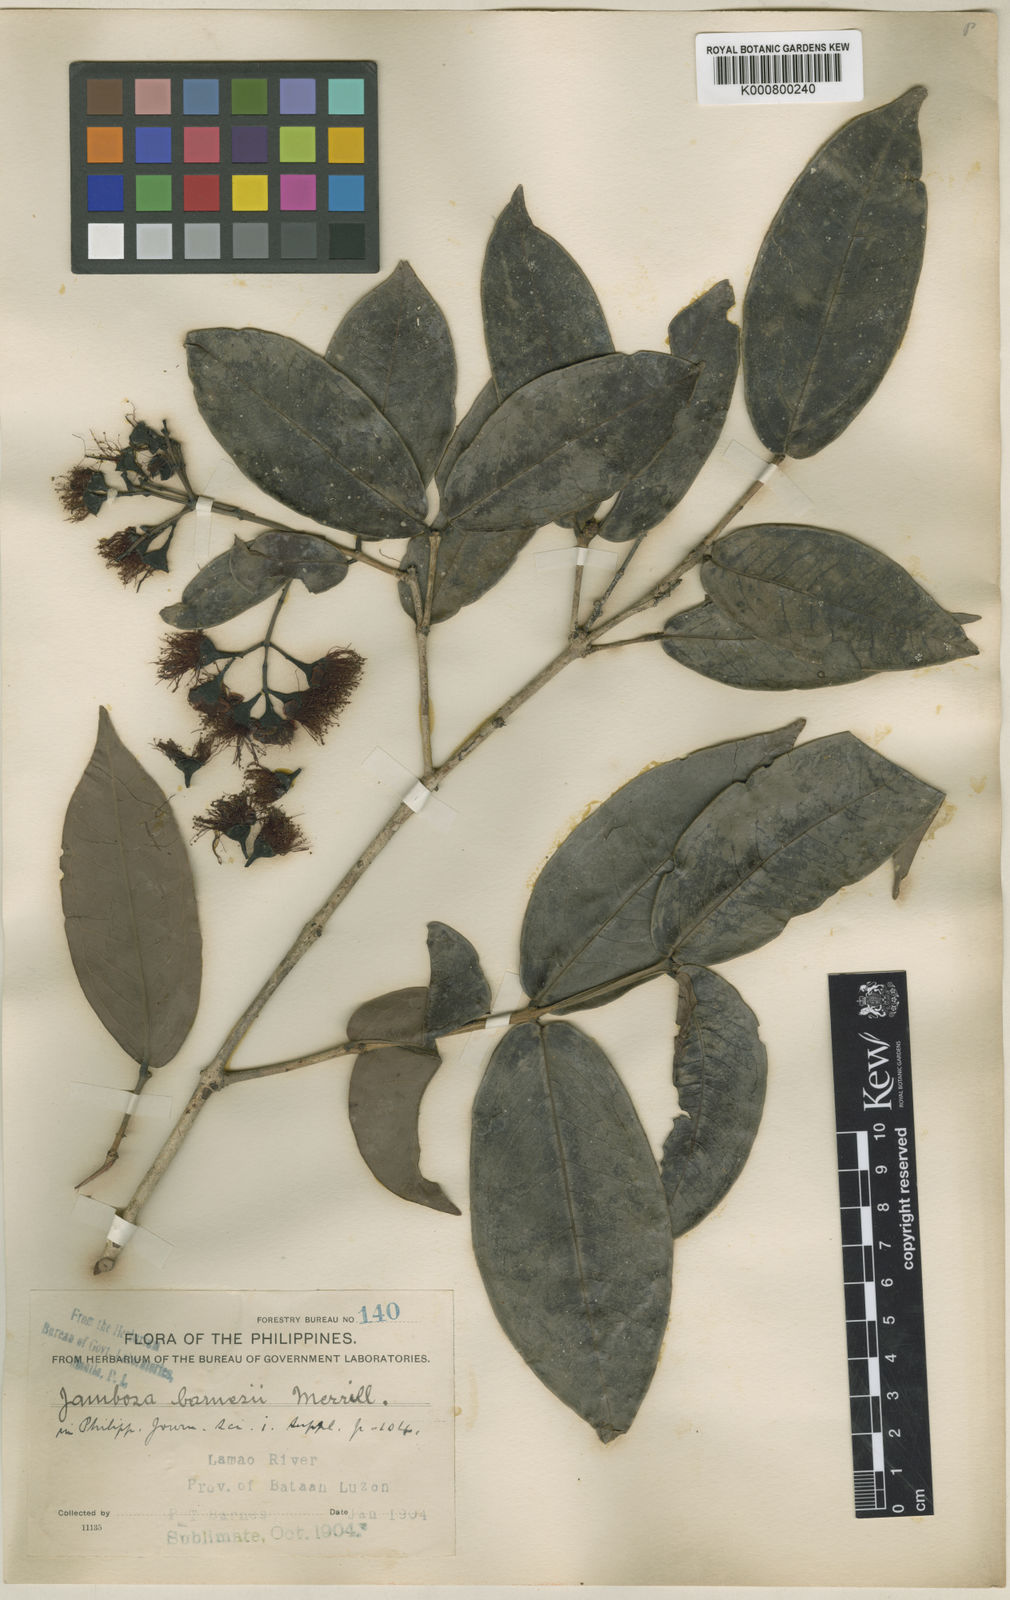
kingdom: Plantae
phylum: Tracheophyta
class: Magnoliopsida
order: Myrtales
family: Myrtaceae
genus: Syzygium
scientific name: Syzygium barnesii
